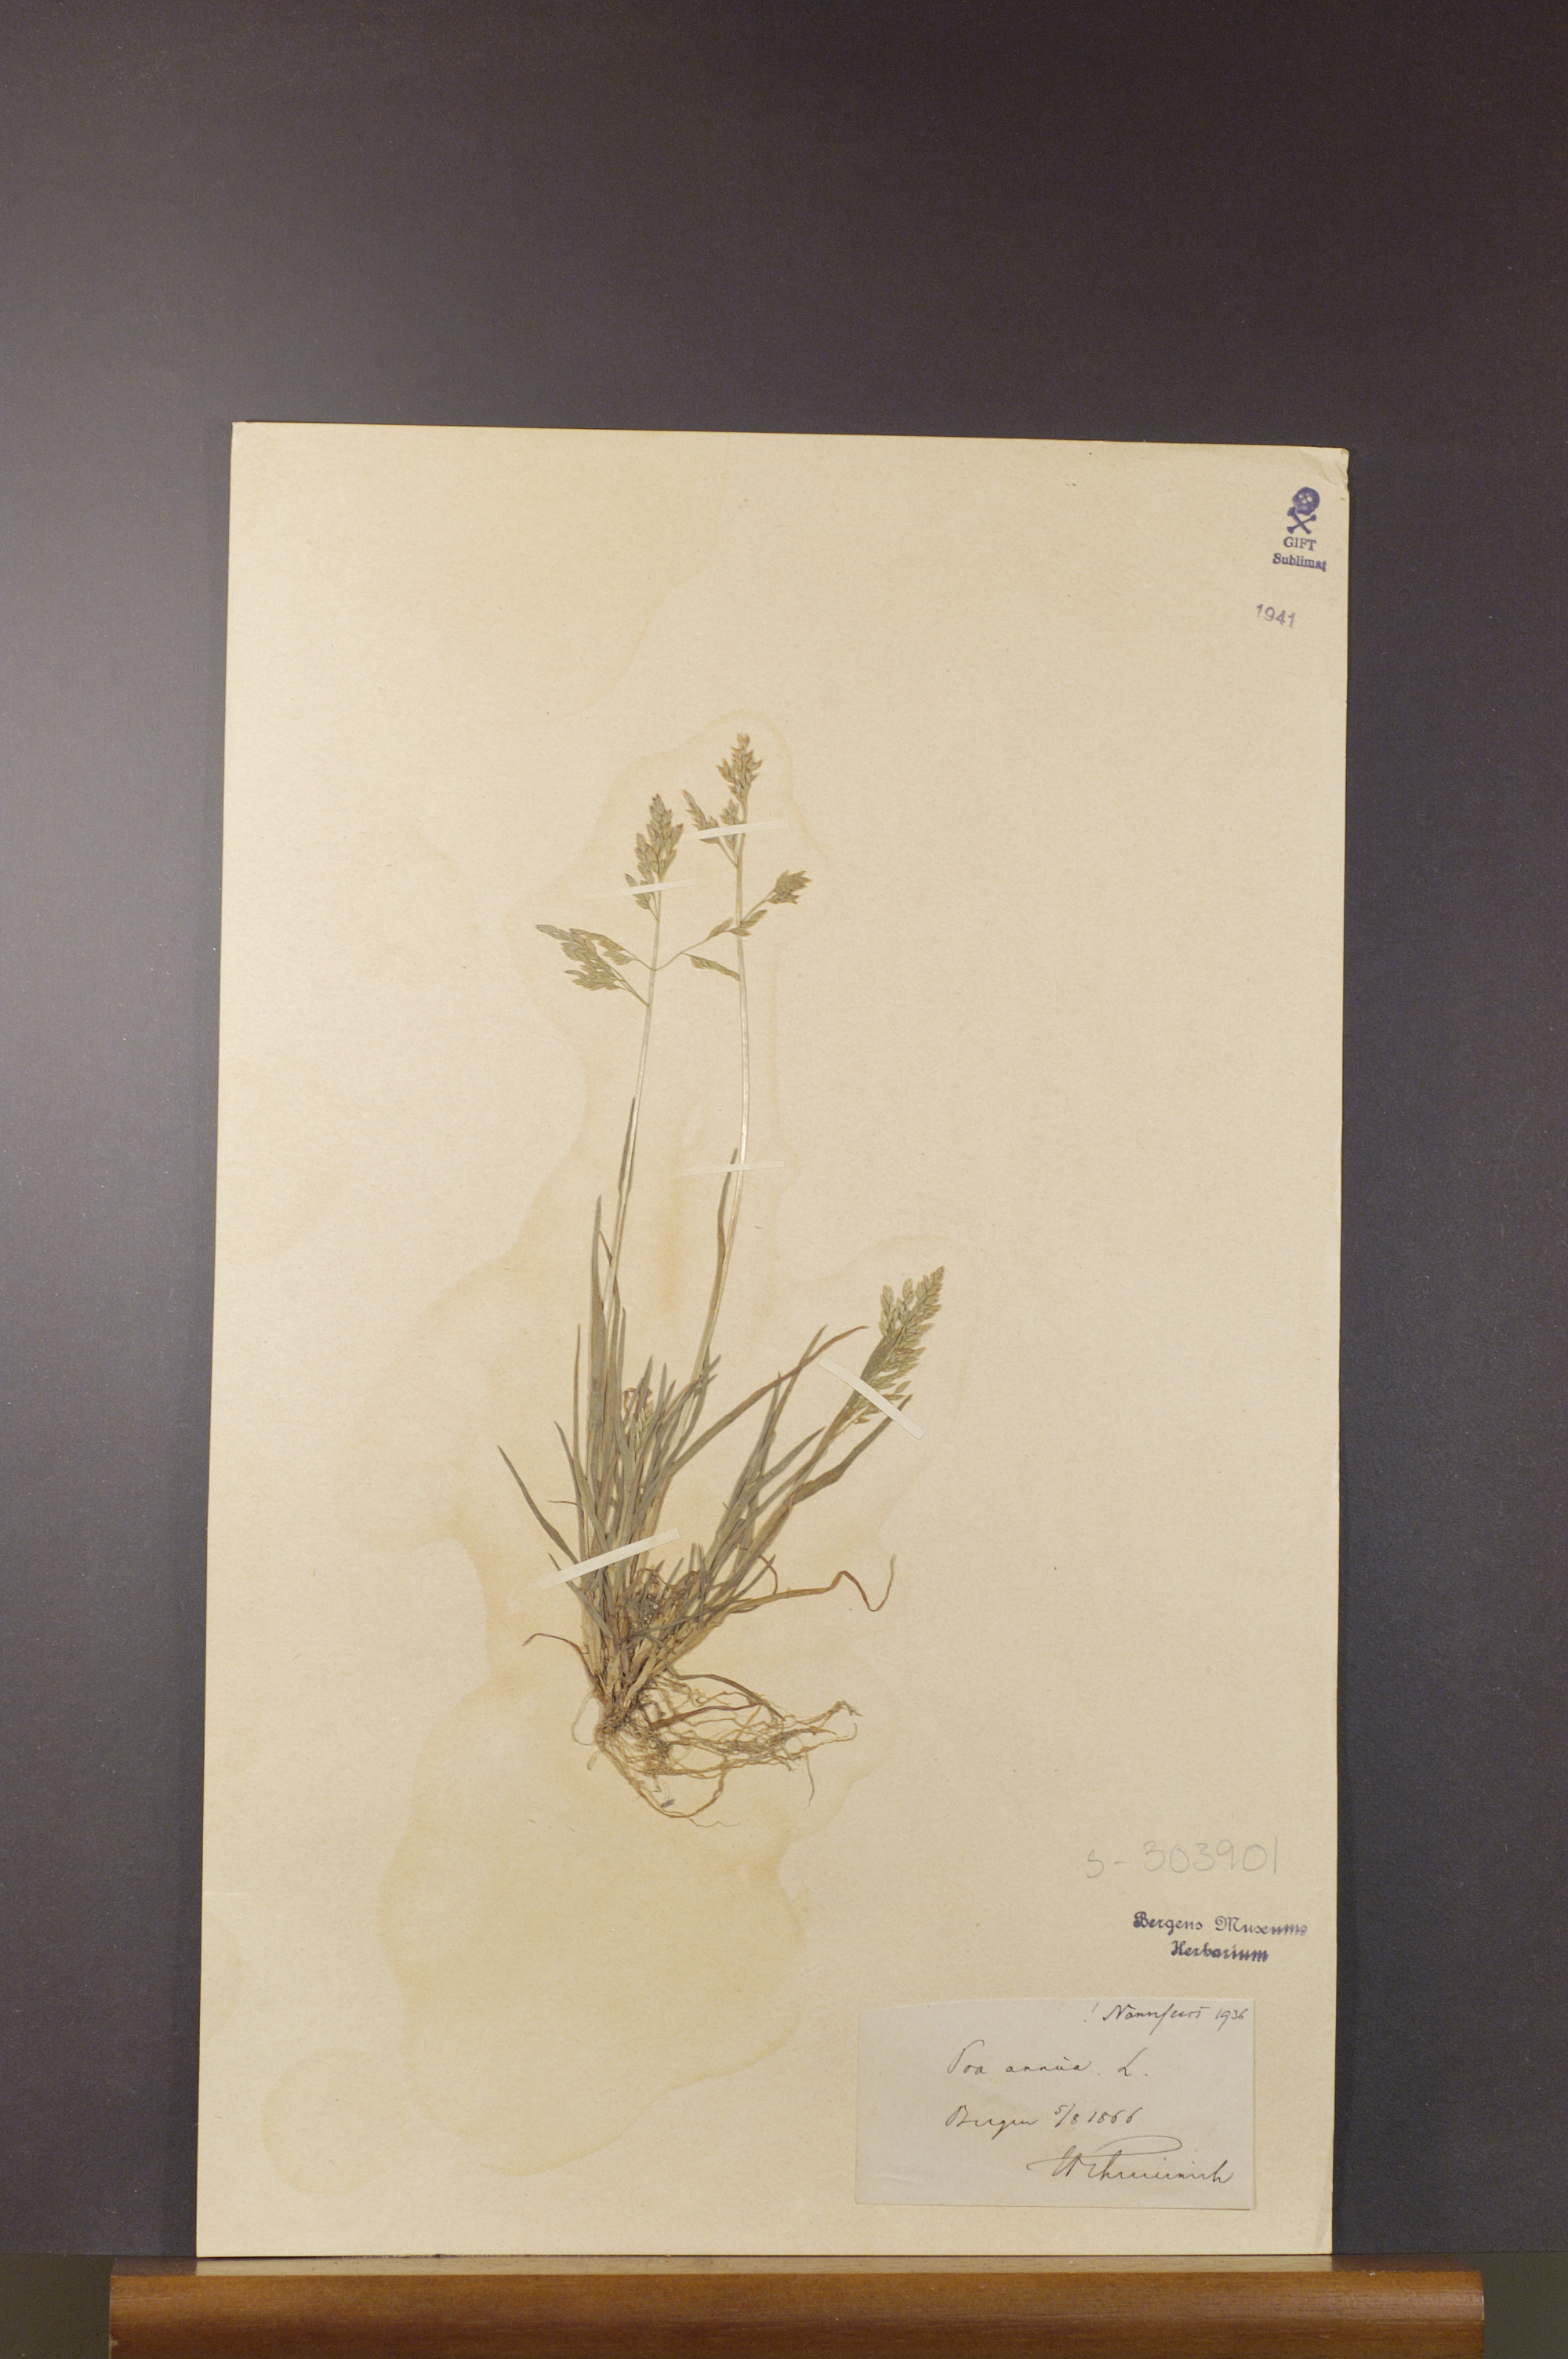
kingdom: Plantae
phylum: Tracheophyta
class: Liliopsida
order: Poales
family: Poaceae
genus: Poa
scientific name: Poa annua
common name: Annual bluegrass
